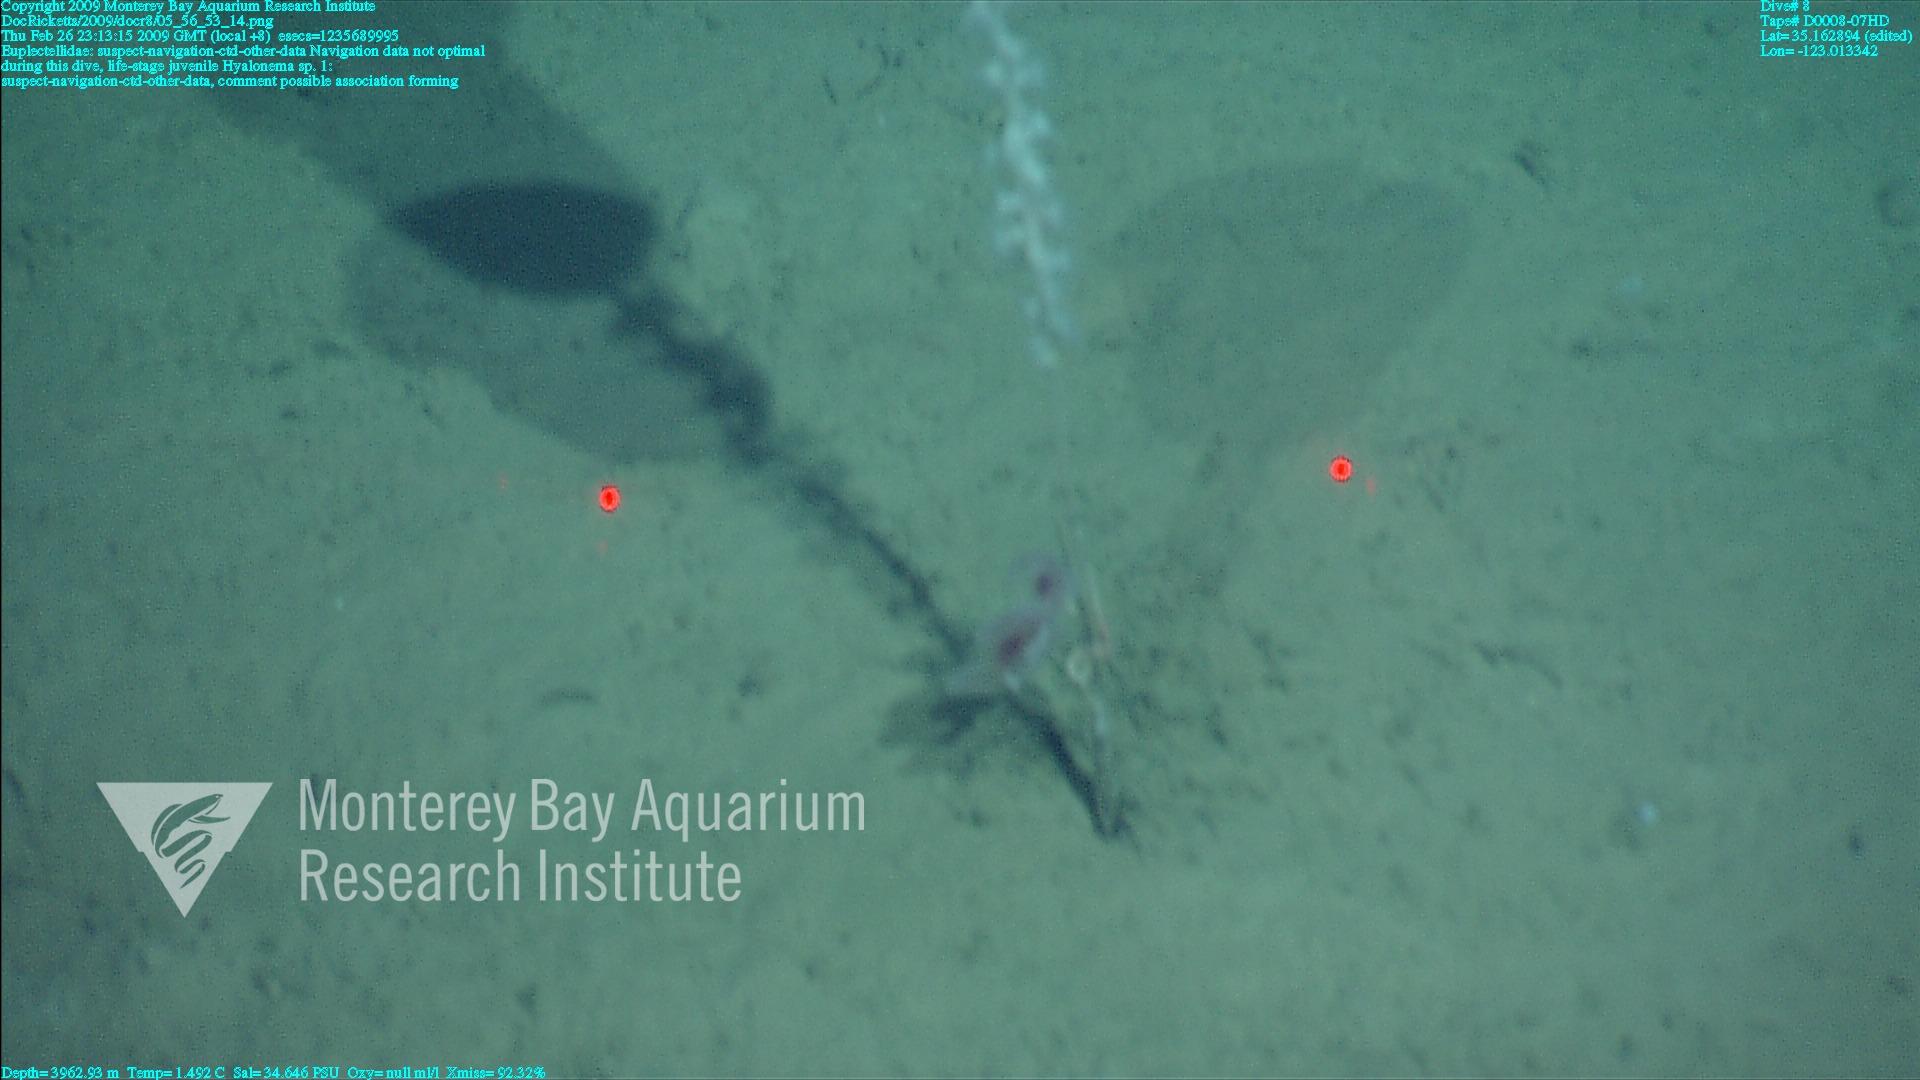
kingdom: Animalia
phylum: Porifera
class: Hexactinellida
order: Lyssacinosida
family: Euplectellidae
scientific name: Euplectellidae
